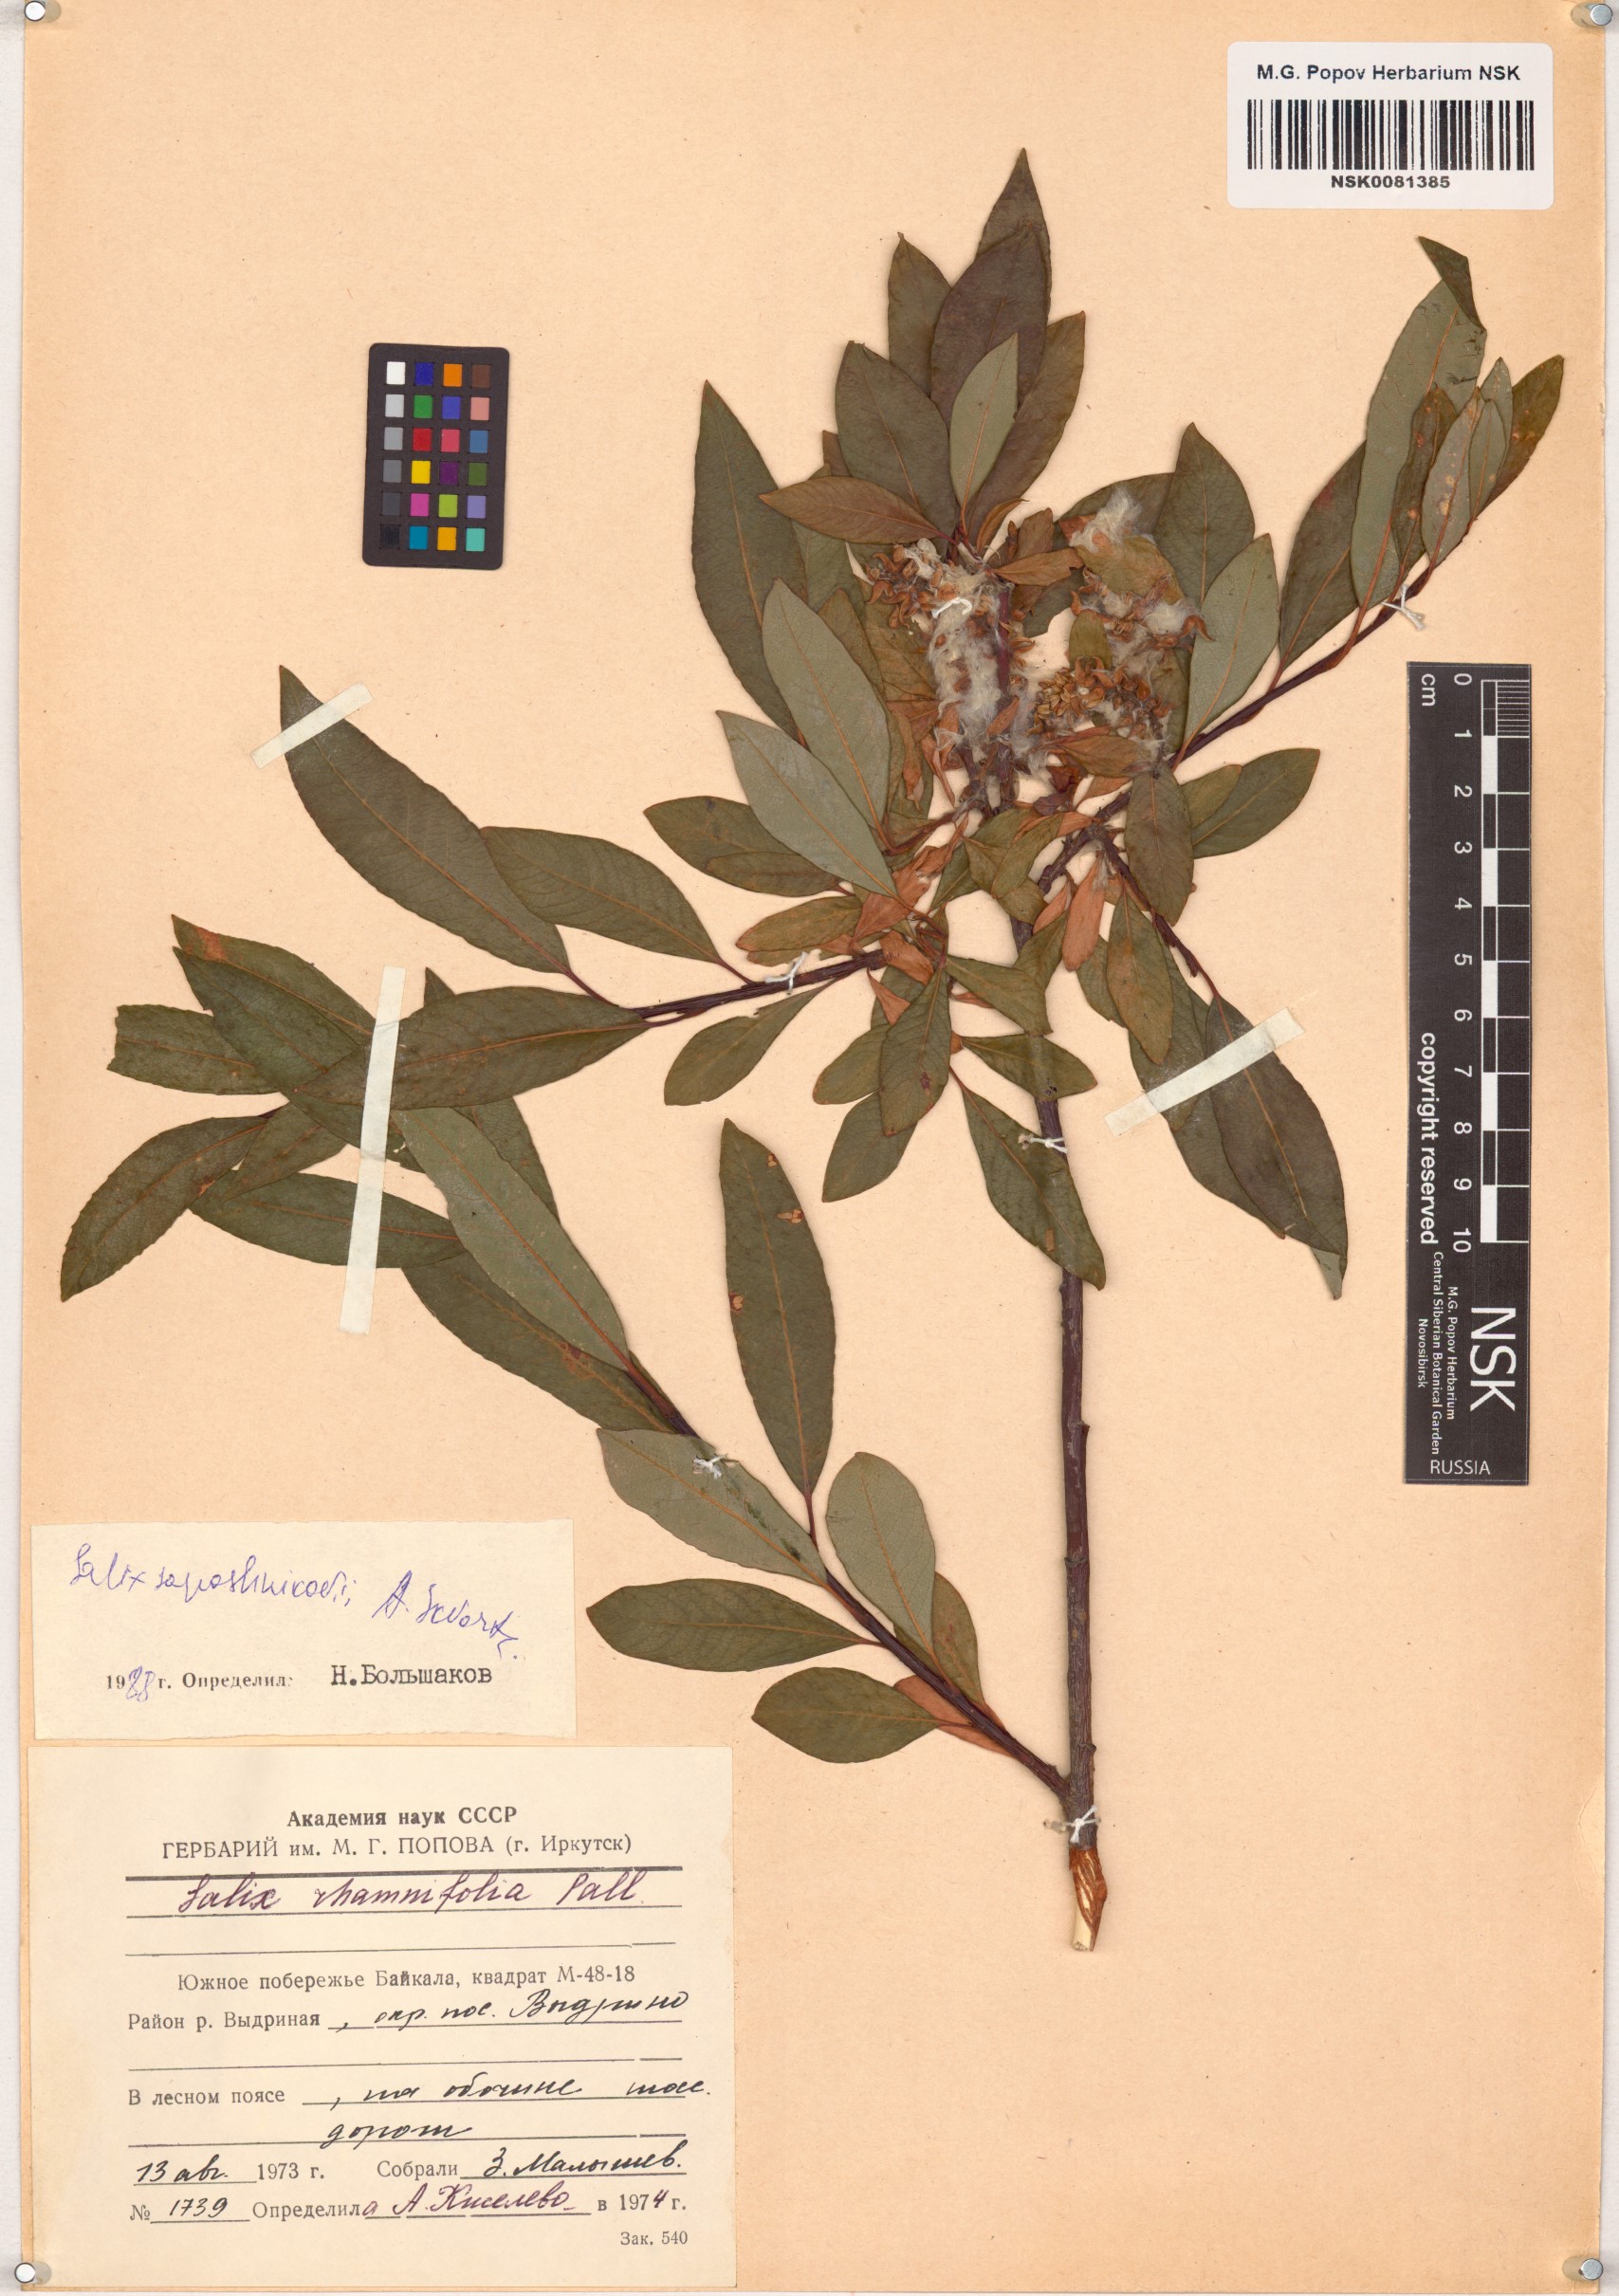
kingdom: Plantae
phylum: Tracheophyta
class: Magnoliopsida
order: Malpighiales
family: Salicaceae
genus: Salix
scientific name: Salix saposhnikovii
